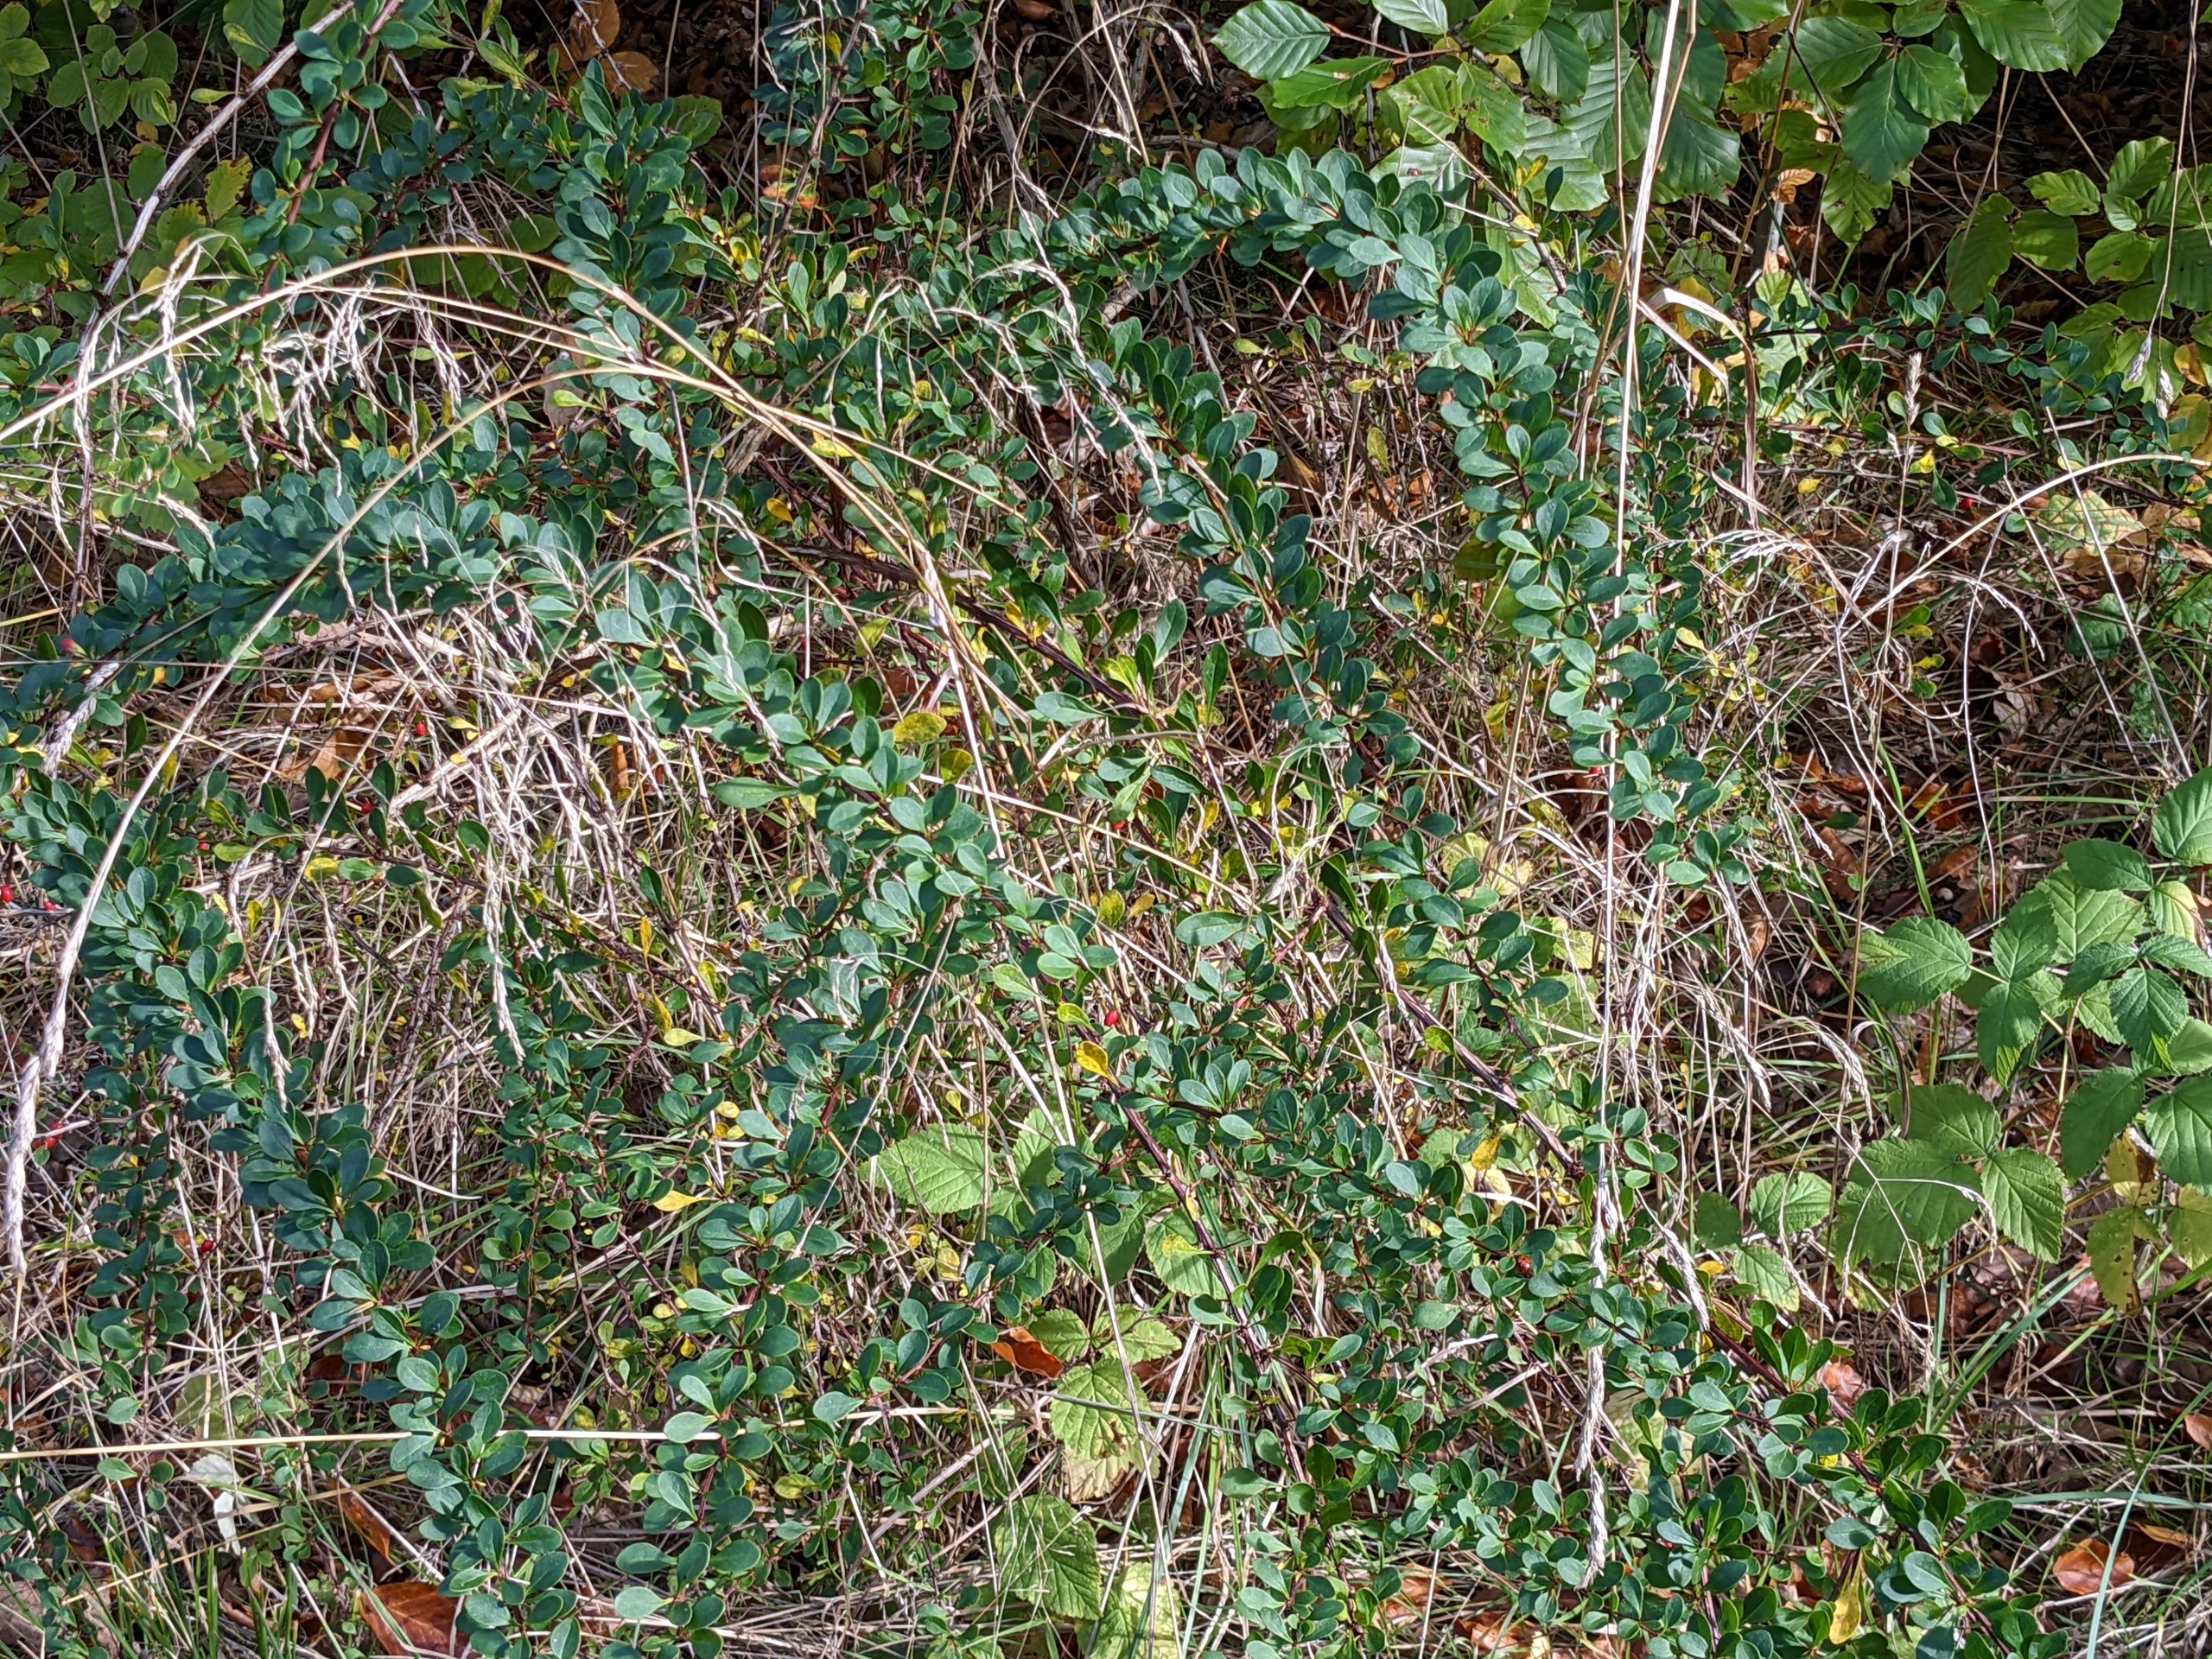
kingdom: Plantae
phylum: Tracheophyta
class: Magnoliopsida
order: Ranunculales
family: Berberidaceae
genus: Berberis
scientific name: Berberis thunbergii
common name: Hæk-berberis
